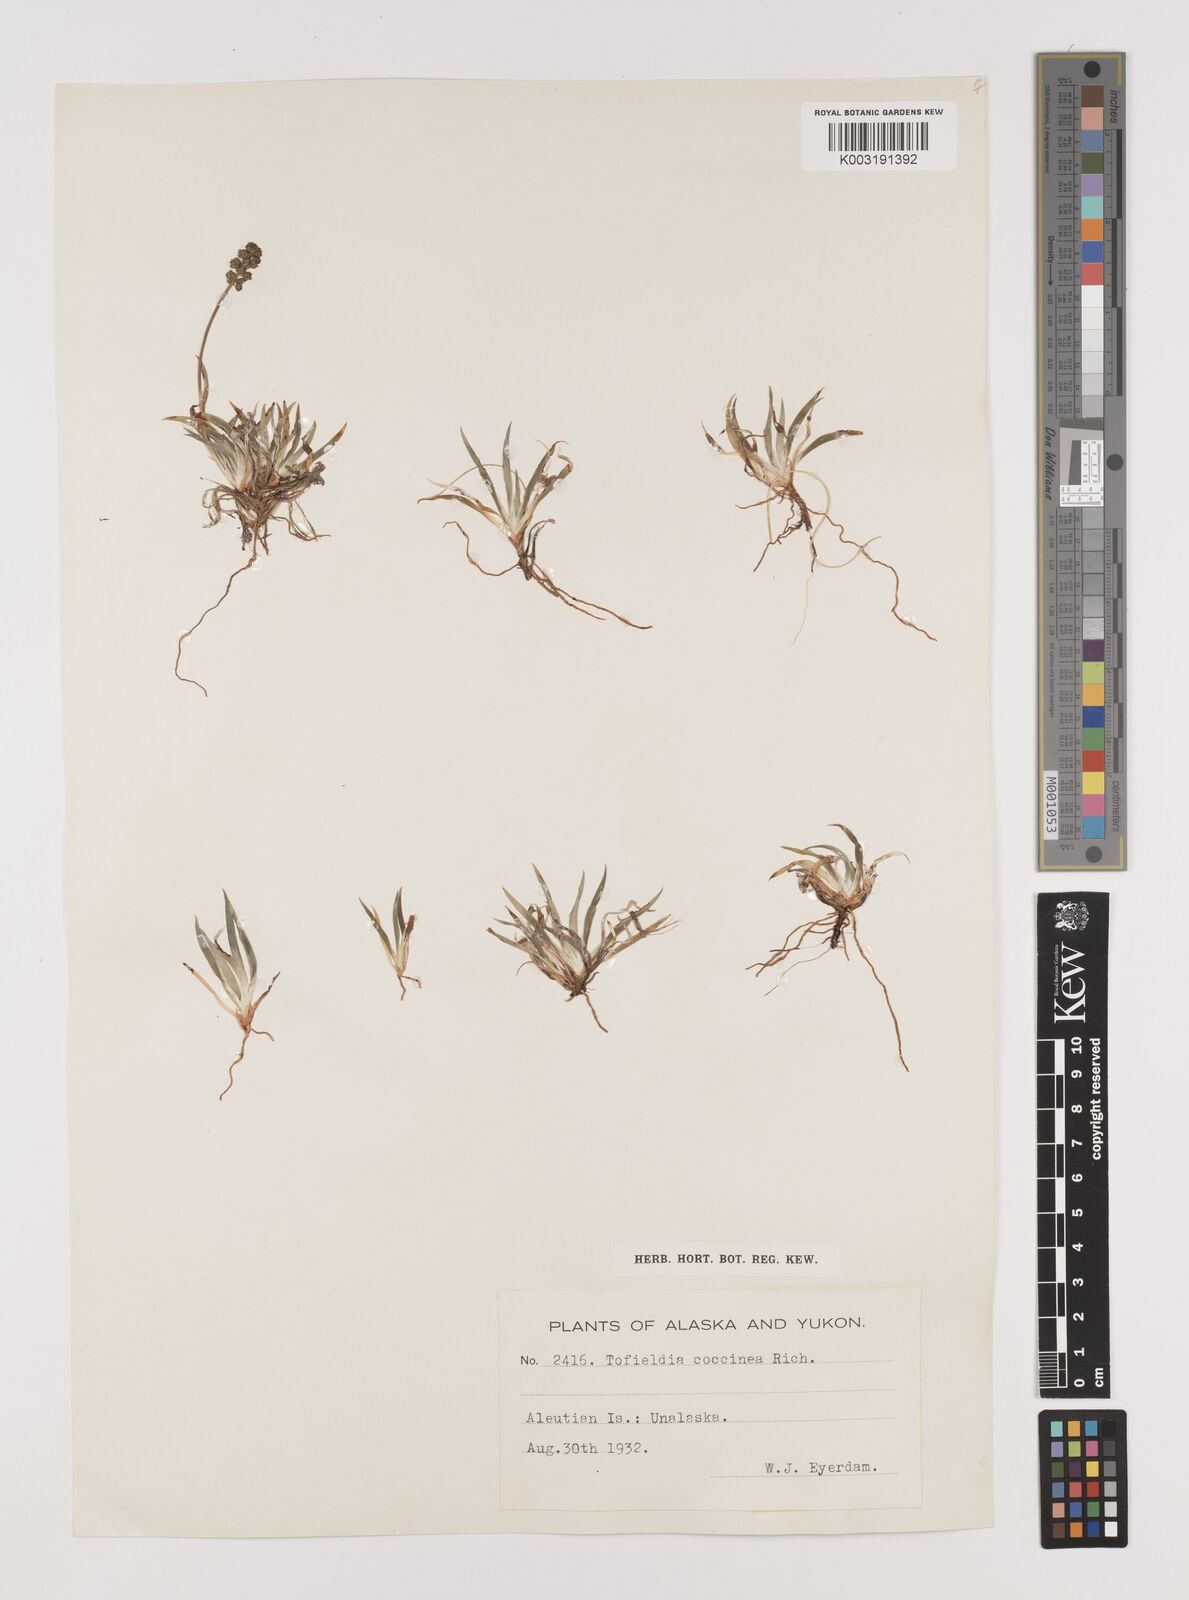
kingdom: Plantae
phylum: Tracheophyta
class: Liliopsida
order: Alismatales
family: Tofieldiaceae
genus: Tofieldia
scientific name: Tofieldia coccinea
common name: Northern false asphodel
